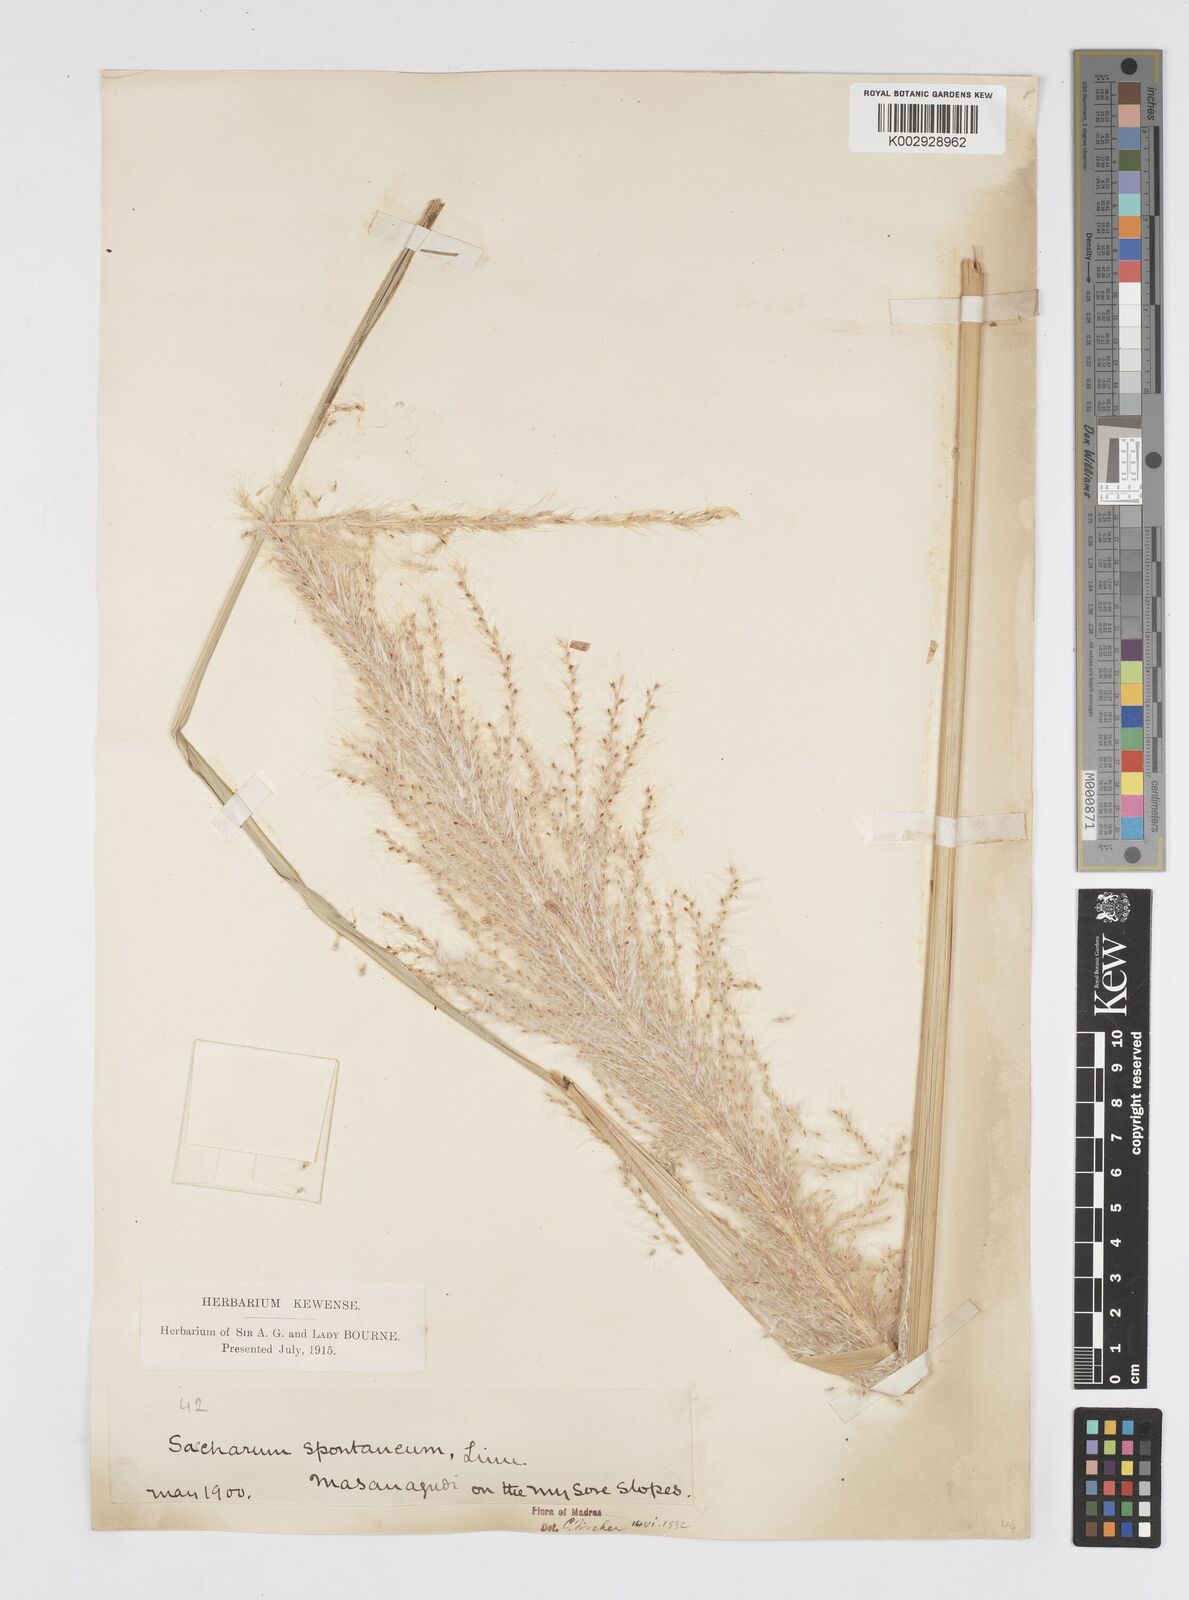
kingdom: Plantae
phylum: Tracheophyta
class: Liliopsida
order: Poales
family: Poaceae
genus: Saccharum
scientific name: Saccharum spontaneum
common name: Wild sugarcane
